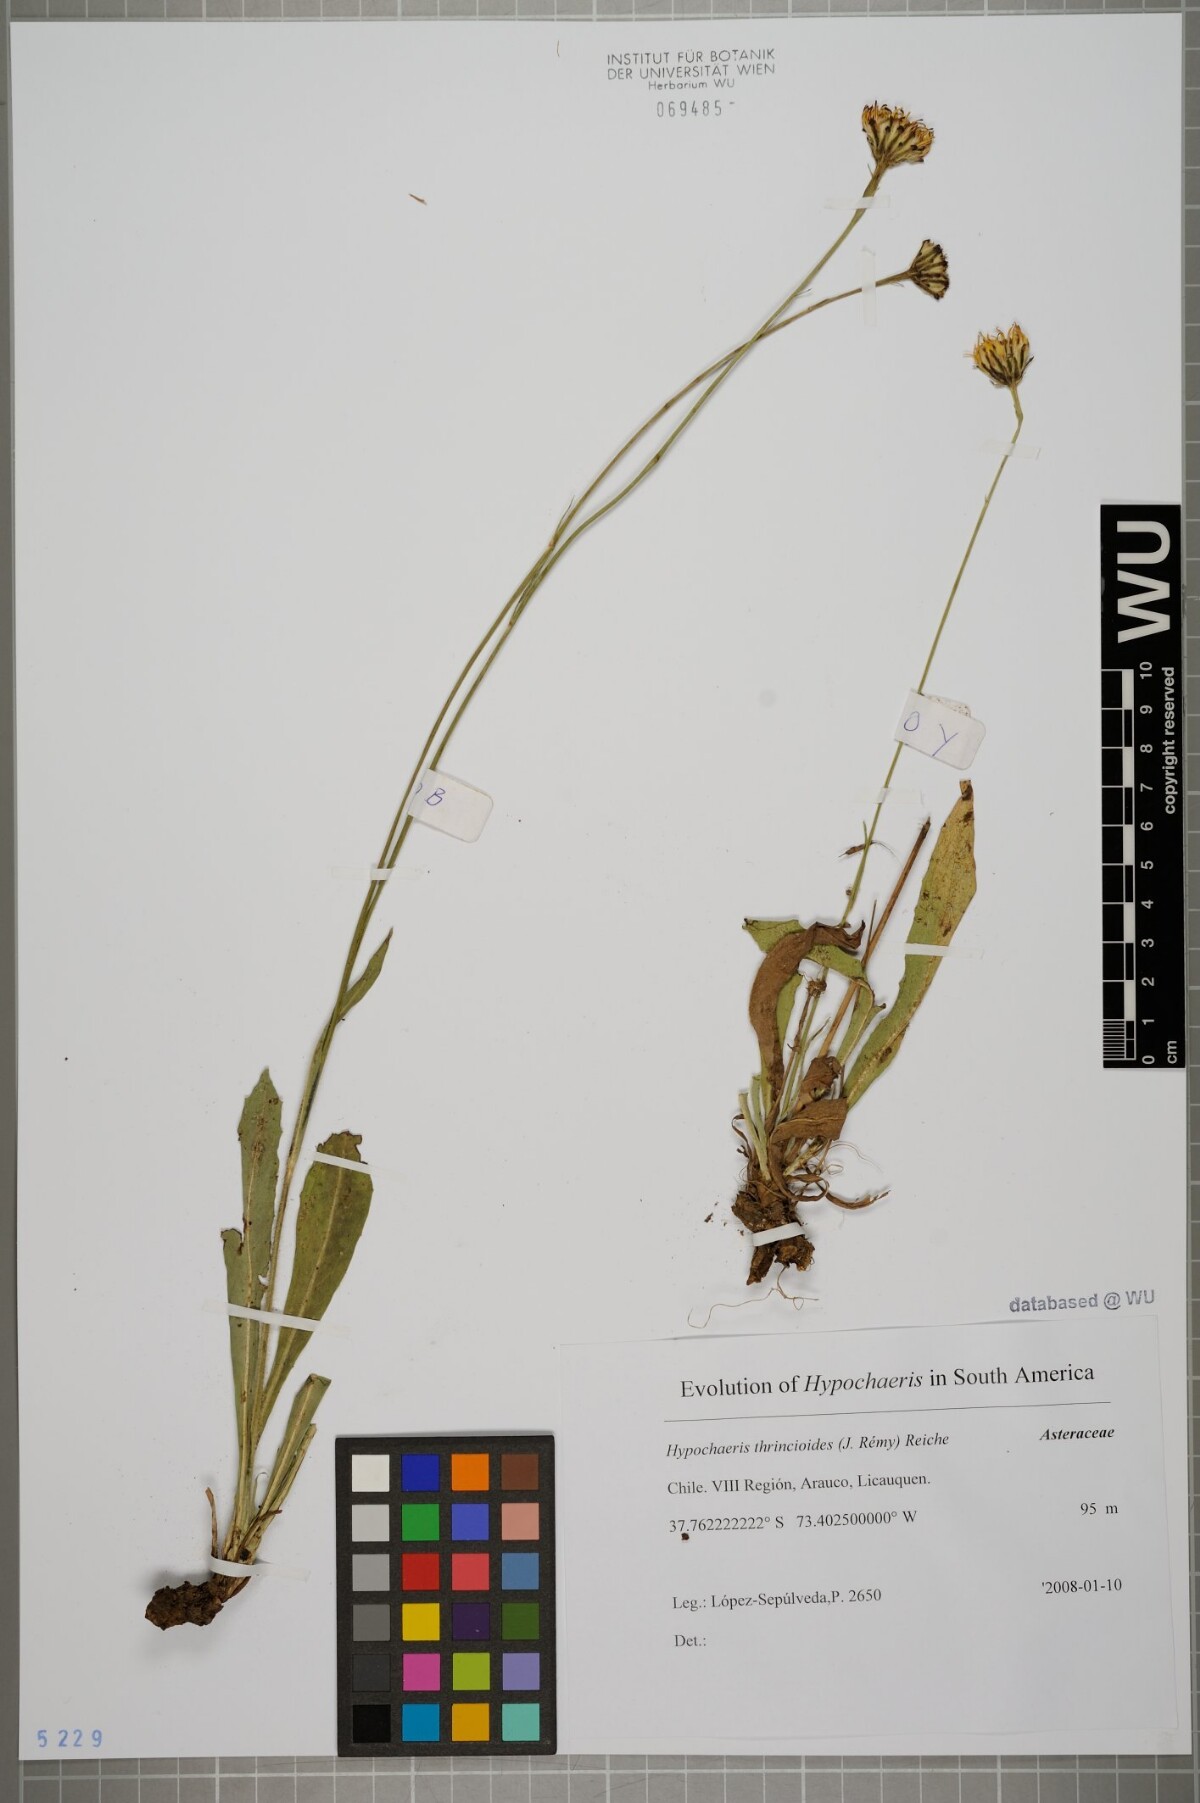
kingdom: Plantae
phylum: Tracheophyta
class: Magnoliopsida
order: Asterales
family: Asteraceae
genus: Hypochaeris
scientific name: Hypochaeris apargioides
